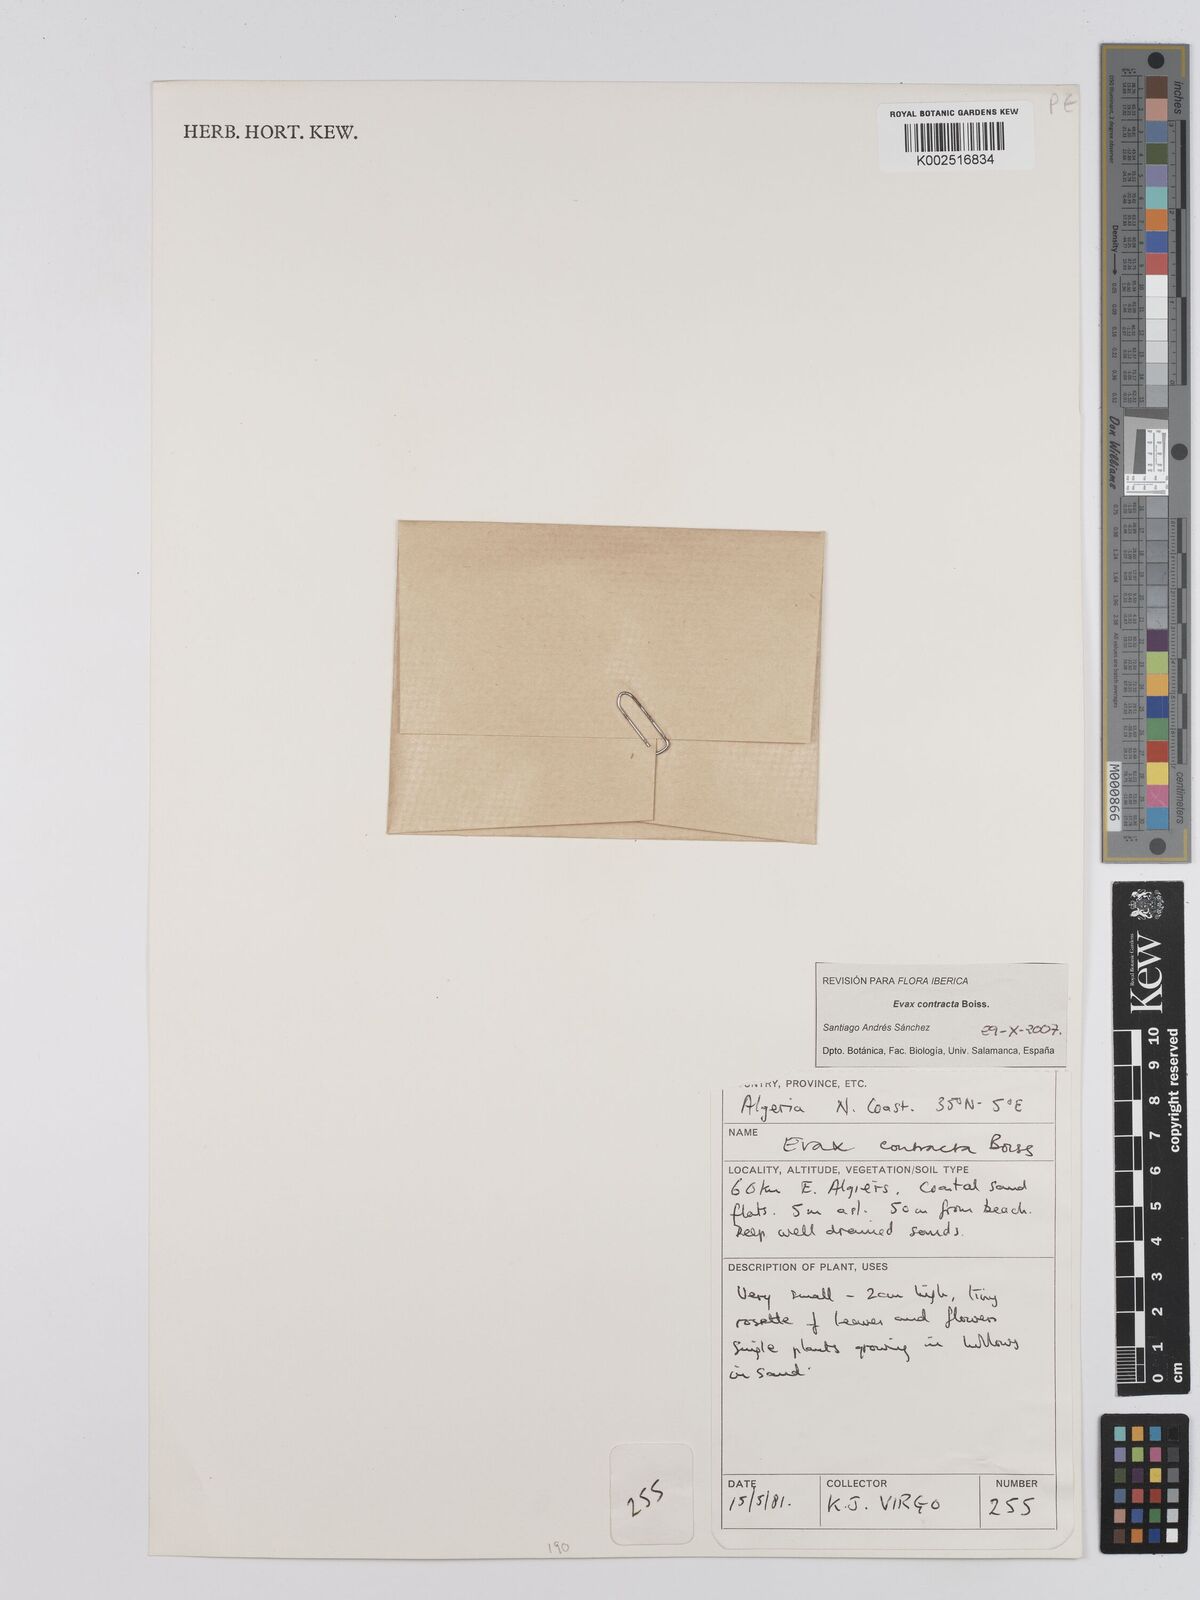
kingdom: Plantae
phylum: Tracheophyta
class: Magnoliopsida
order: Asterales
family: Asteraceae
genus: Filago
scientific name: Filago contracta
